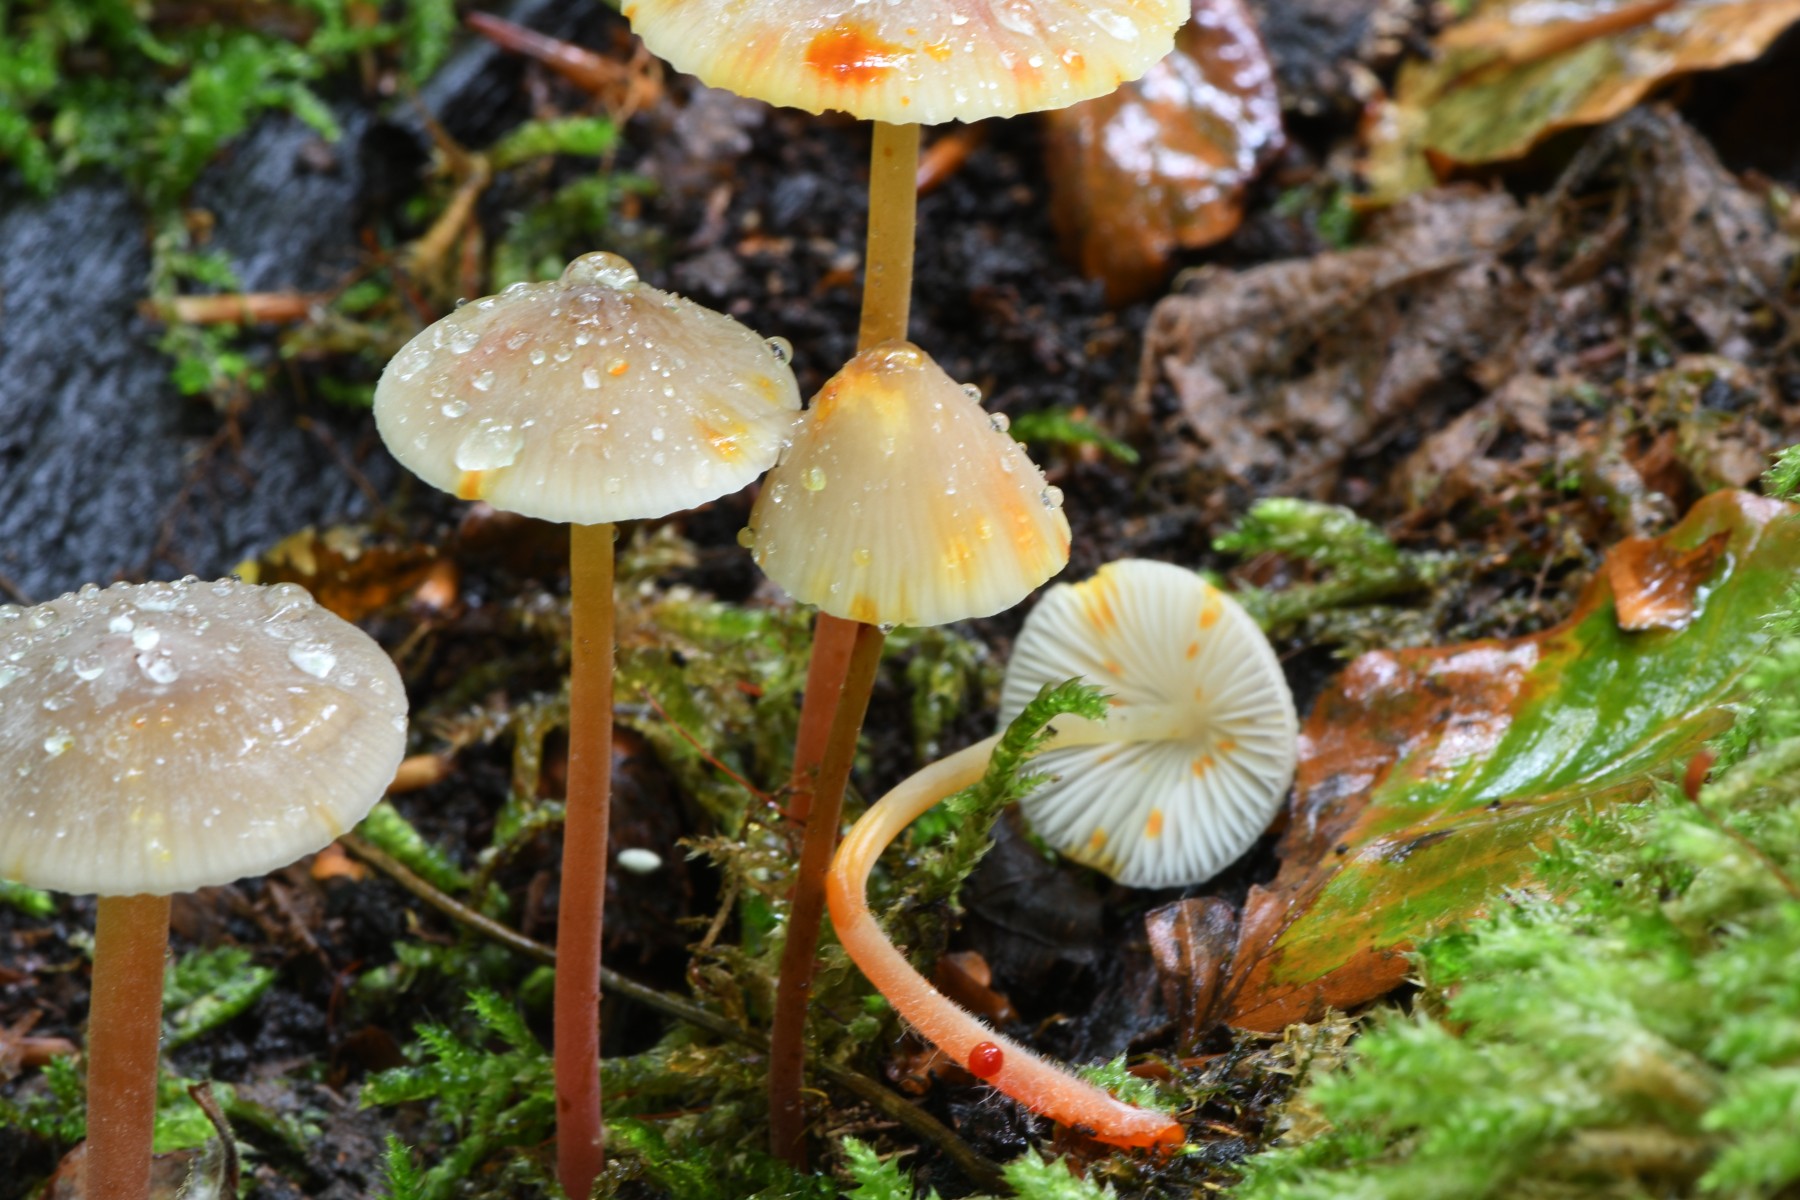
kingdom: Fungi
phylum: Basidiomycota
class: Agaricomycetes
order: Agaricales
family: Mycenaceae
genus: Mycena
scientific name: Mycena crocata
